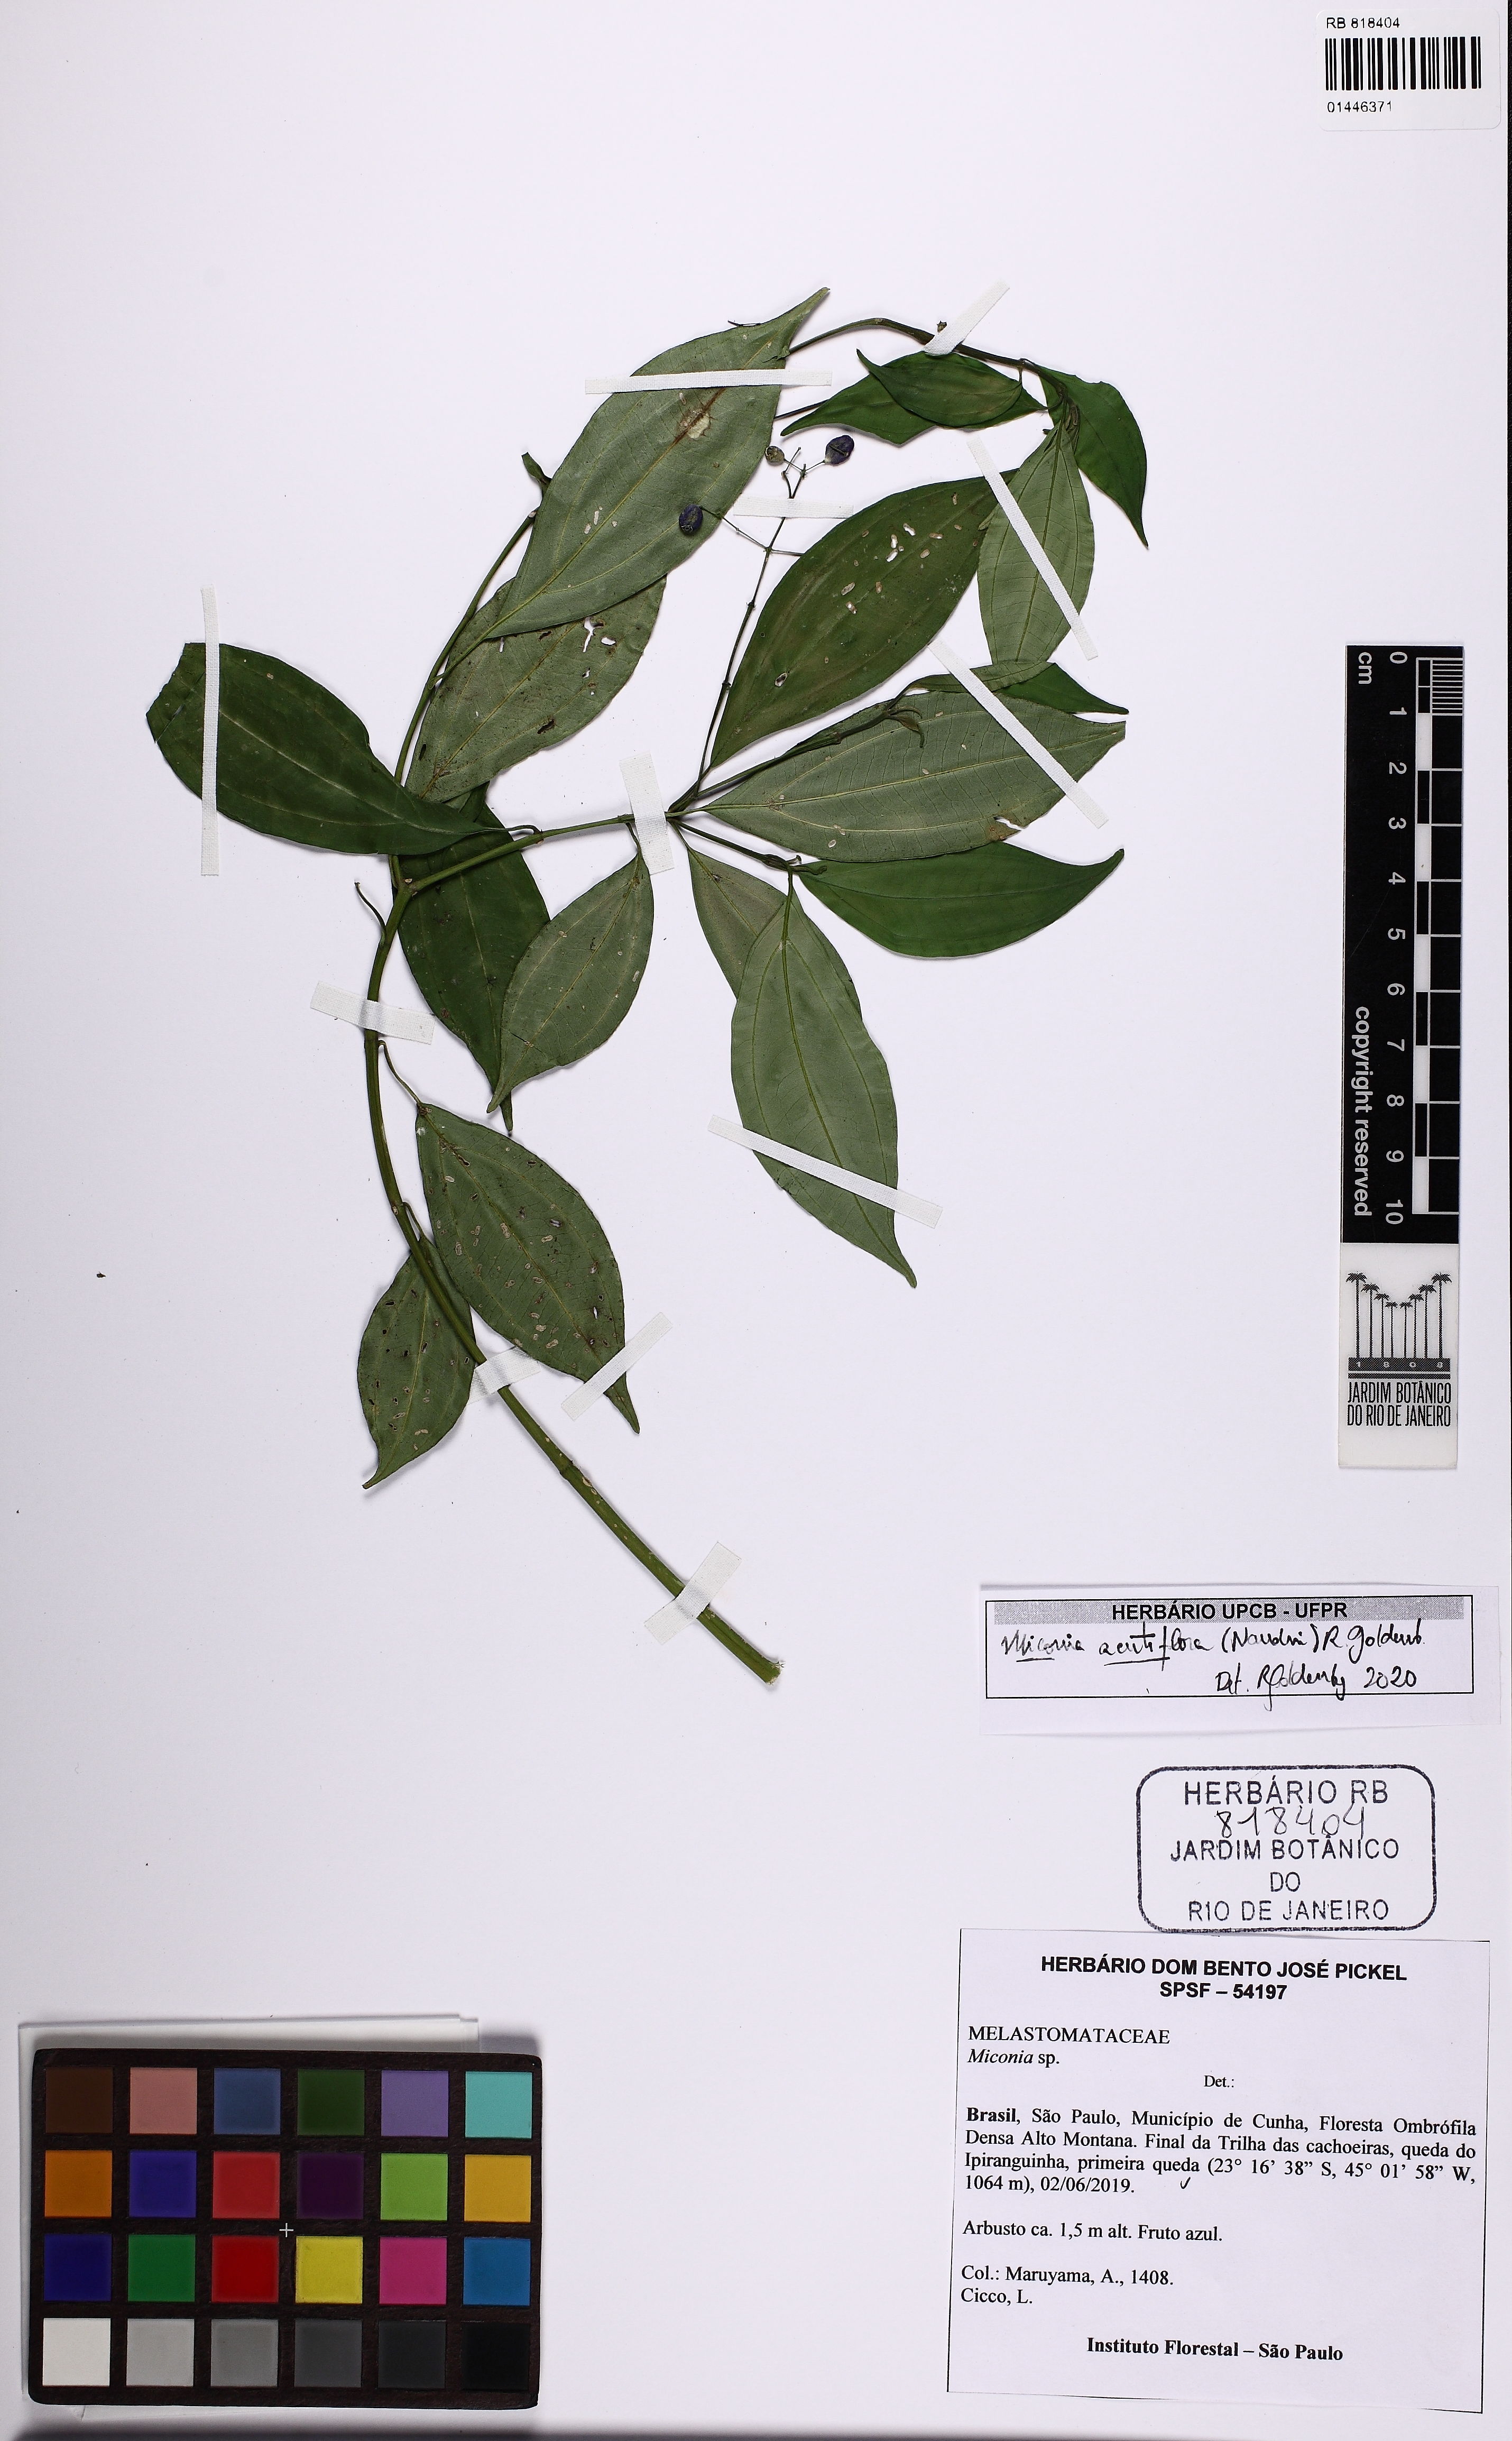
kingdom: Plantae
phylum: Tracheophyta
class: Magnoliopsida
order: Myrtales
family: Melastomataceae
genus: Miconia
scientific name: Miconia acutiflora
